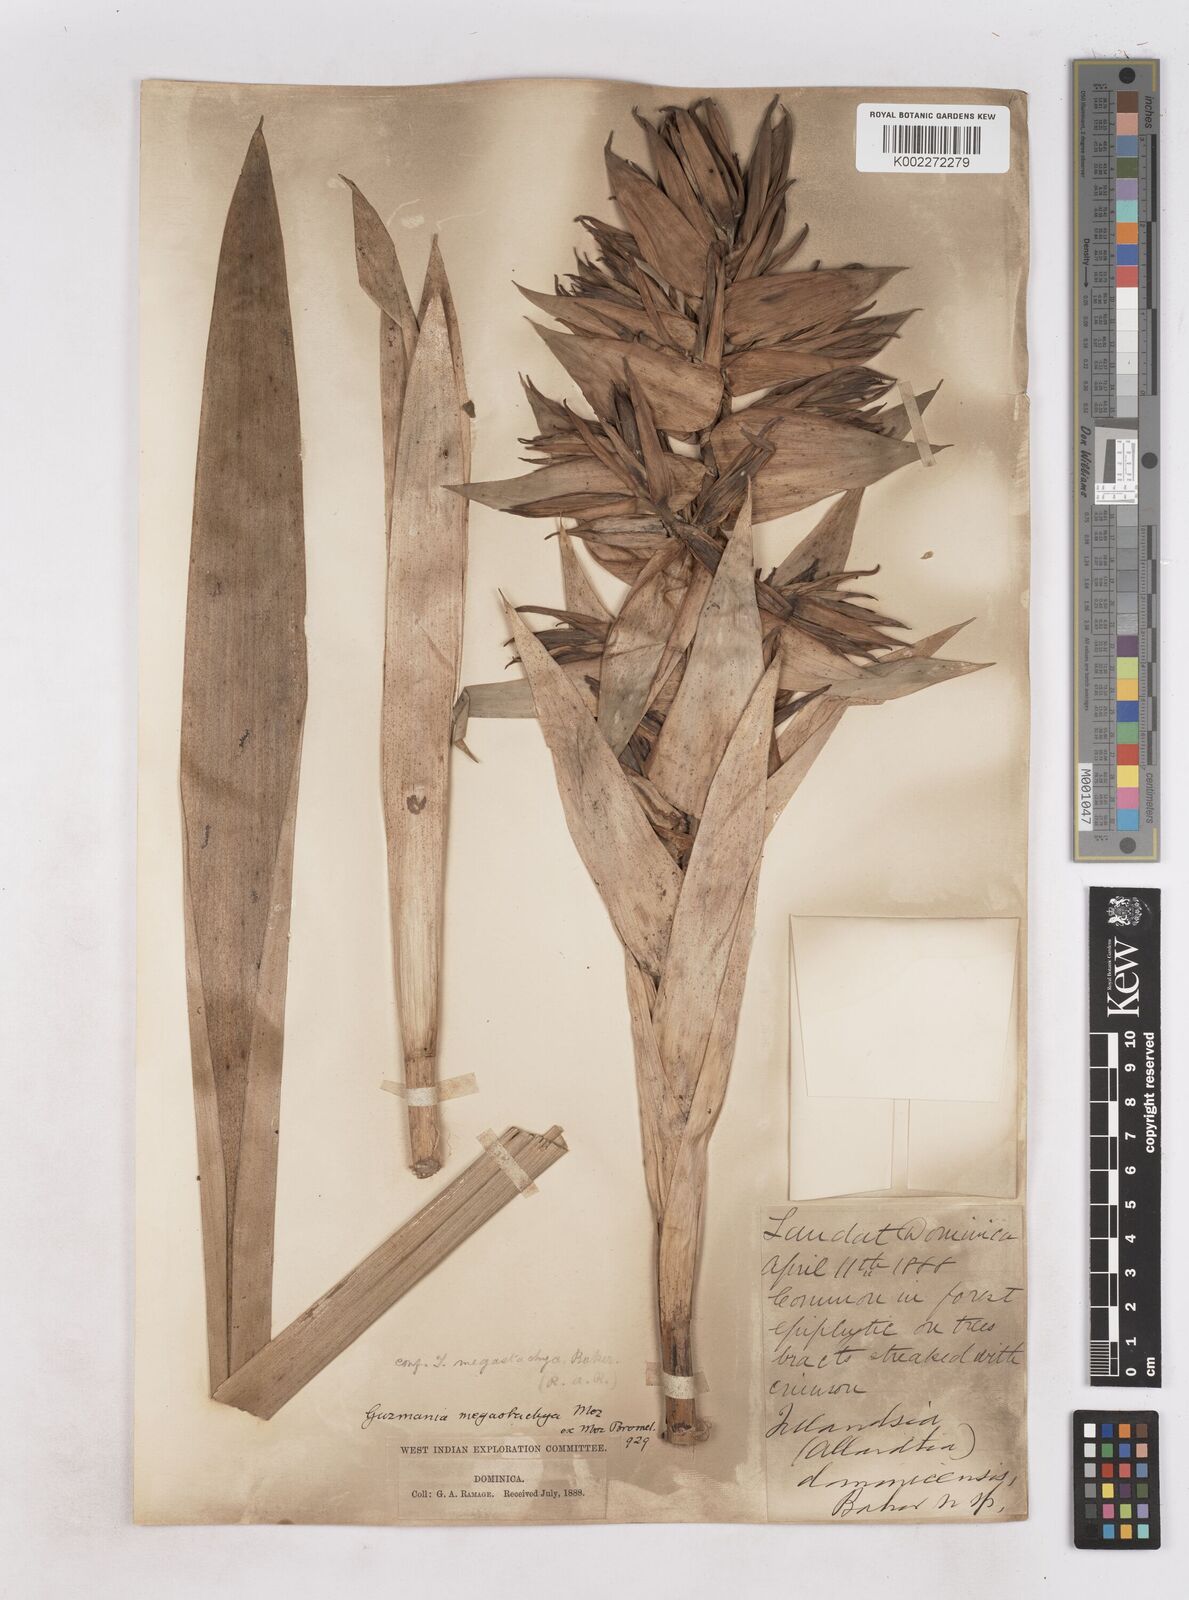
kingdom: Plantae
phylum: Tracheophyta
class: Liliopsida
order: Poales
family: Bromeliaceae
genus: Guzmania
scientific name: Guzmania megastachya
